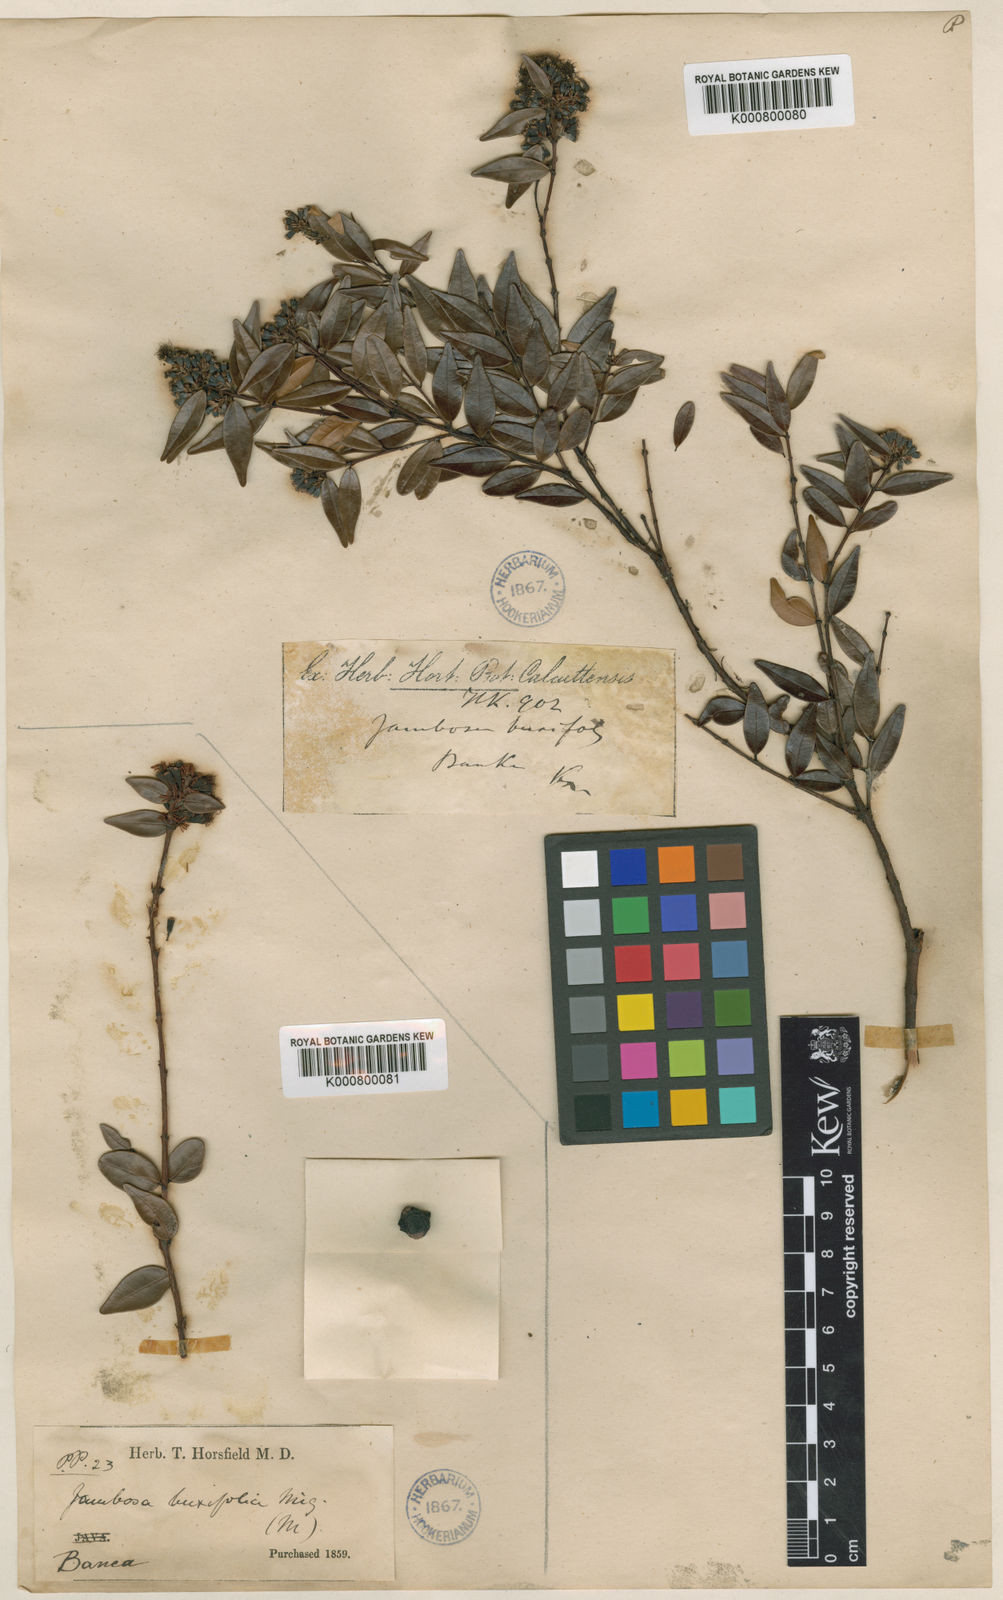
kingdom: Plantae
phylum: Tracheophyta
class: Magnoliopsida
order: Myrtales
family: Myrtaceae
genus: Syzygium
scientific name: Syzygium bankense
